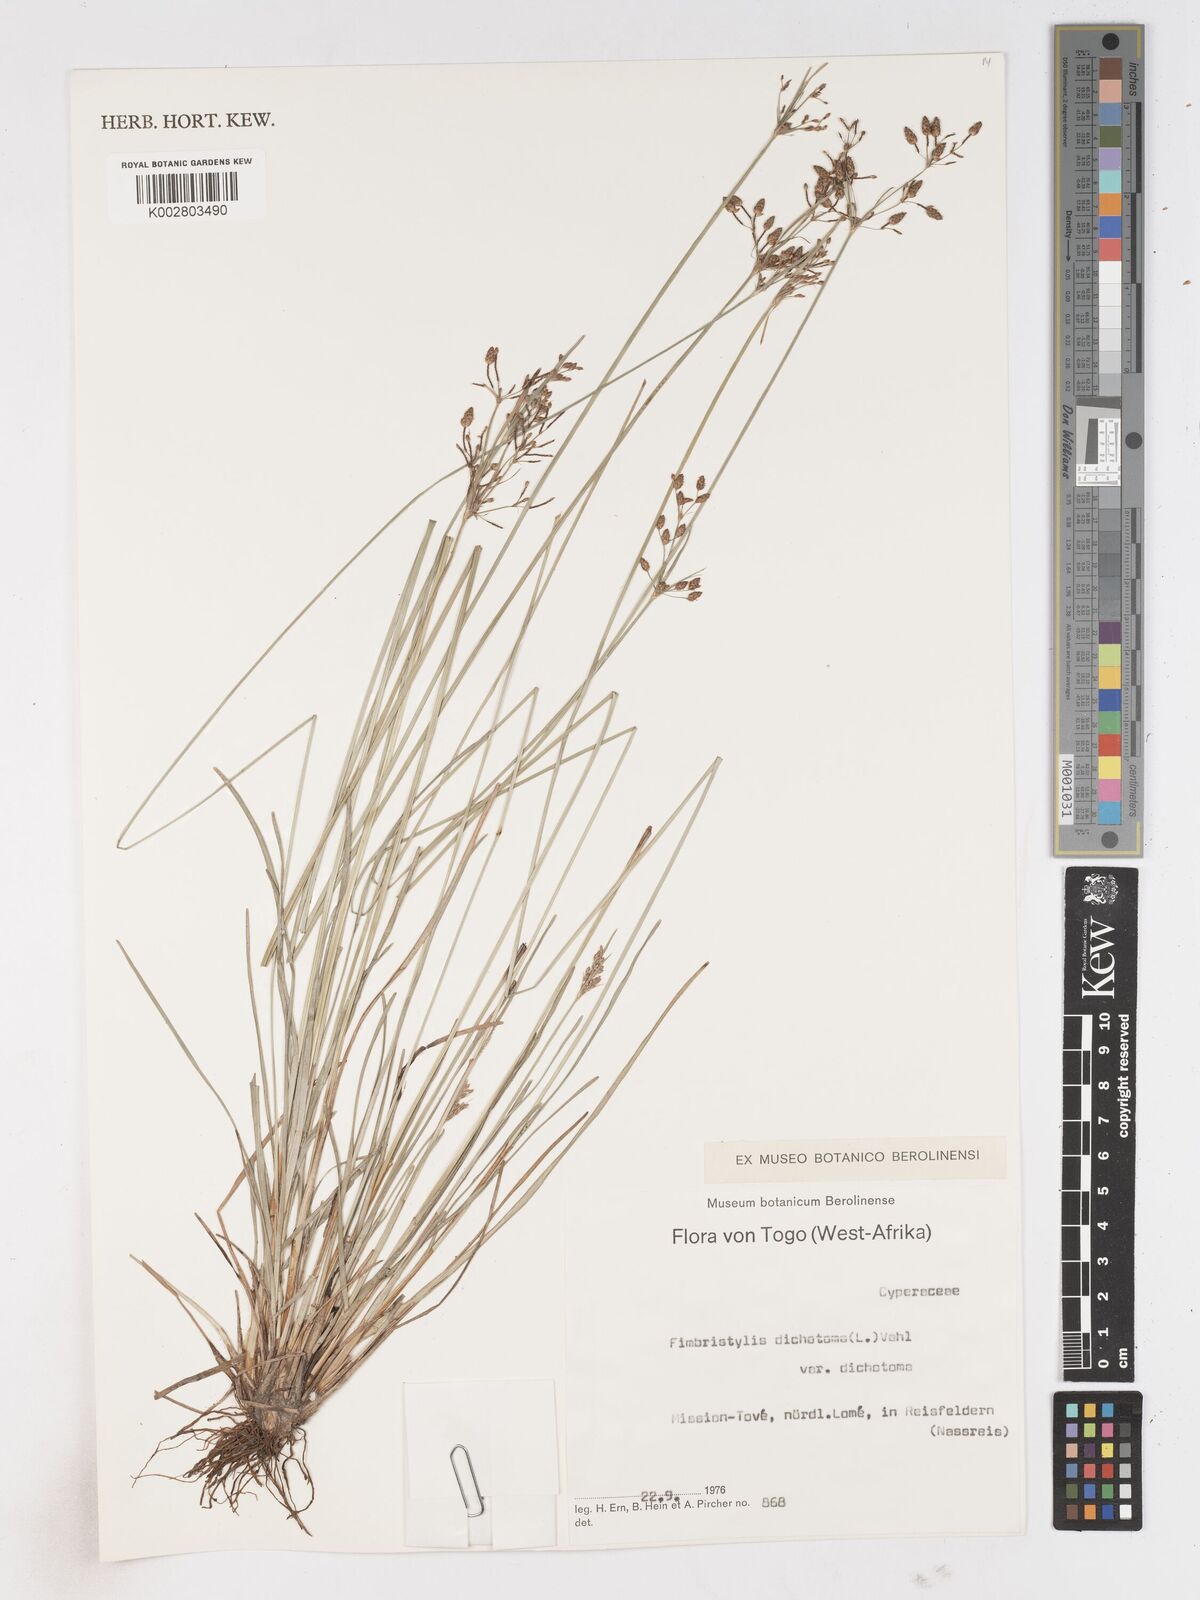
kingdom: Plantae
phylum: Tracheophyta
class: Liliopsida
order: Poales
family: Cyperaceae
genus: Fimbristylis
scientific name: Fimbristylis dichotoma
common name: Forked fimbry
